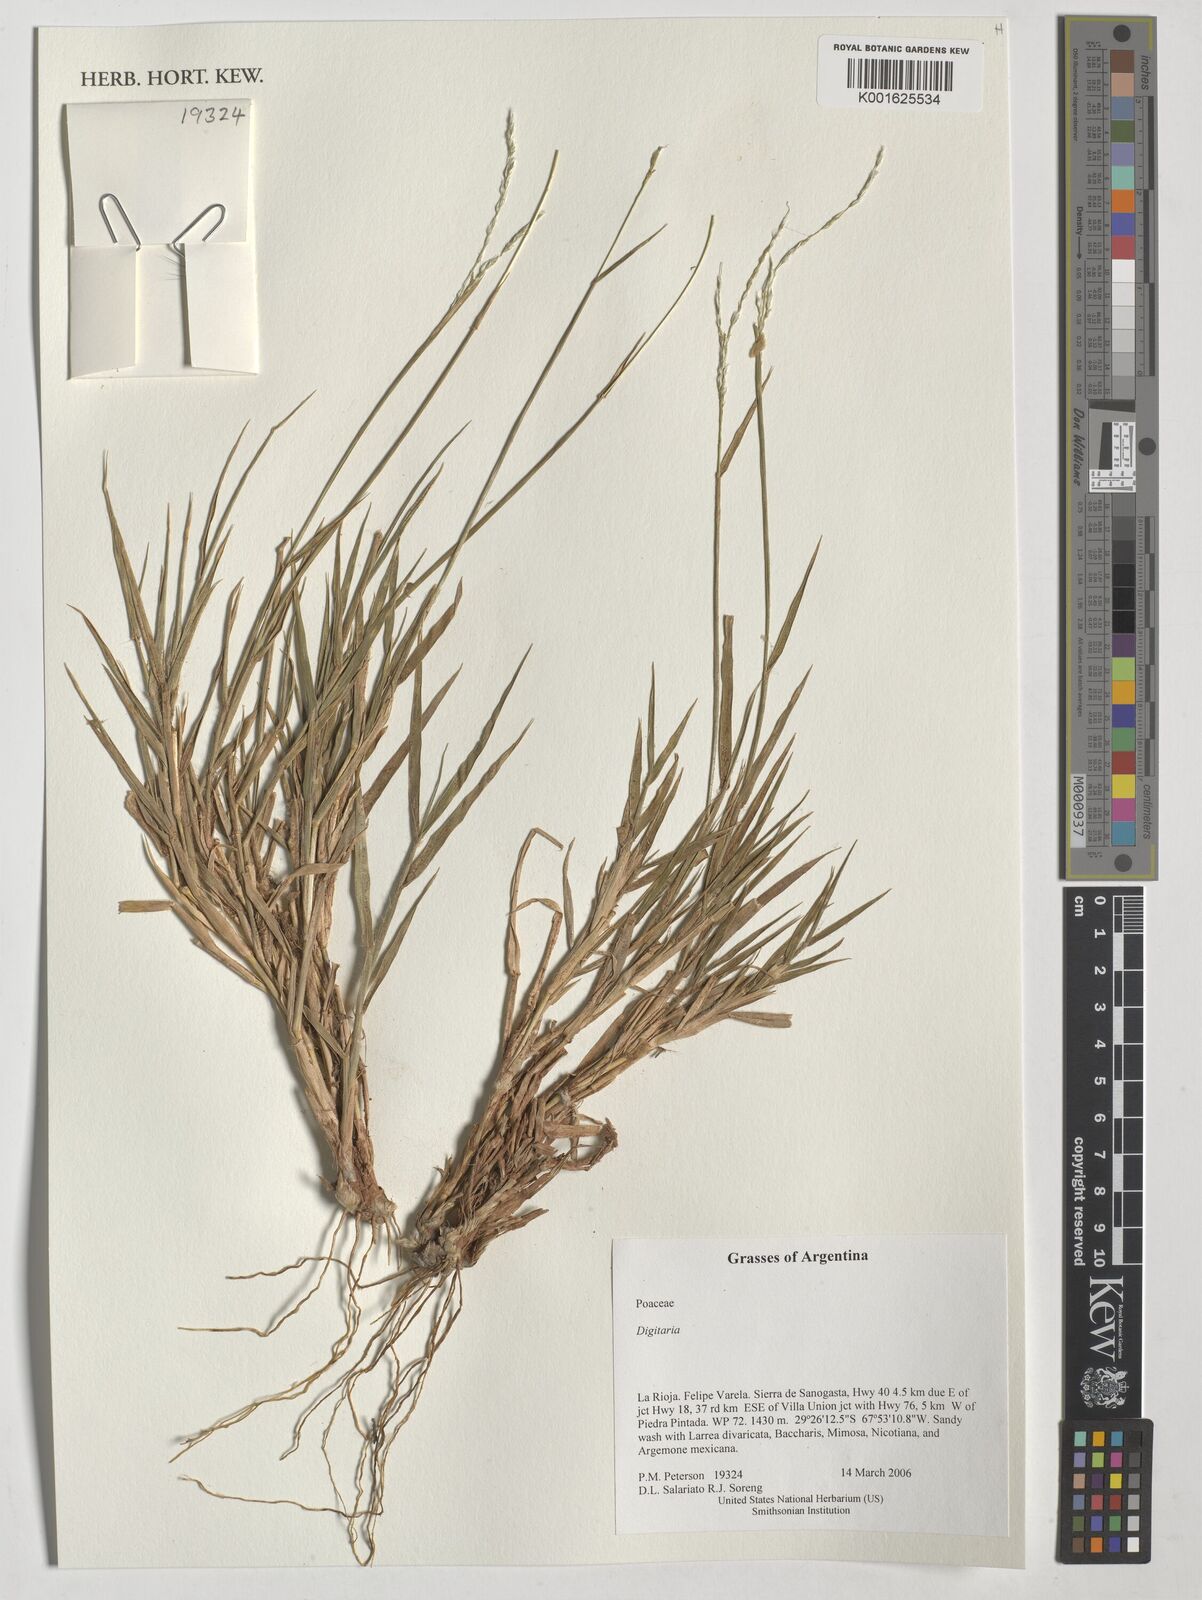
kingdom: Plantae
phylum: Tracheophyta
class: Liliopsida
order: Poales
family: Poaceae
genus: Digitaria
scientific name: Digitaria
